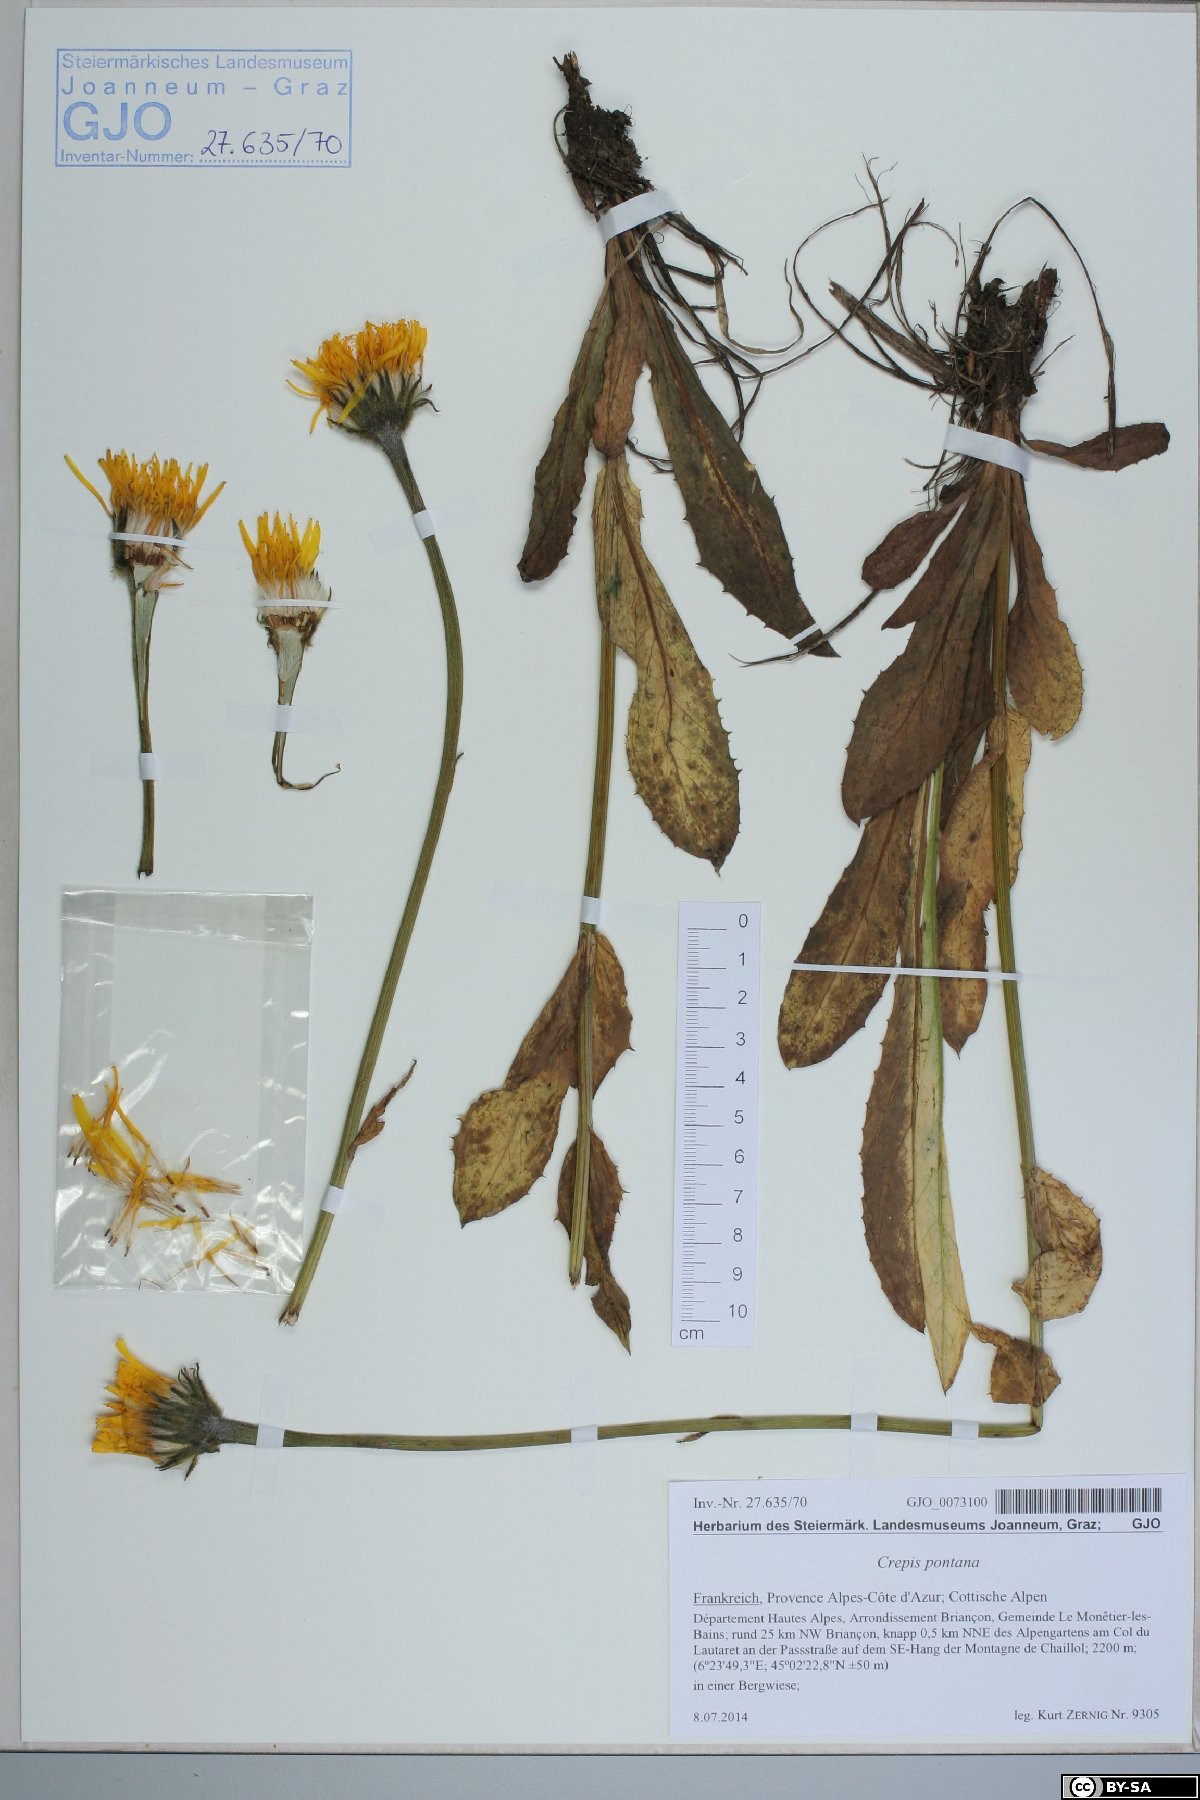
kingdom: Plantae
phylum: Tracheophyta
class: Magnoliopsida
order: Asterales
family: Asteraceae
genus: Crepis
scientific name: Crepis pontana
